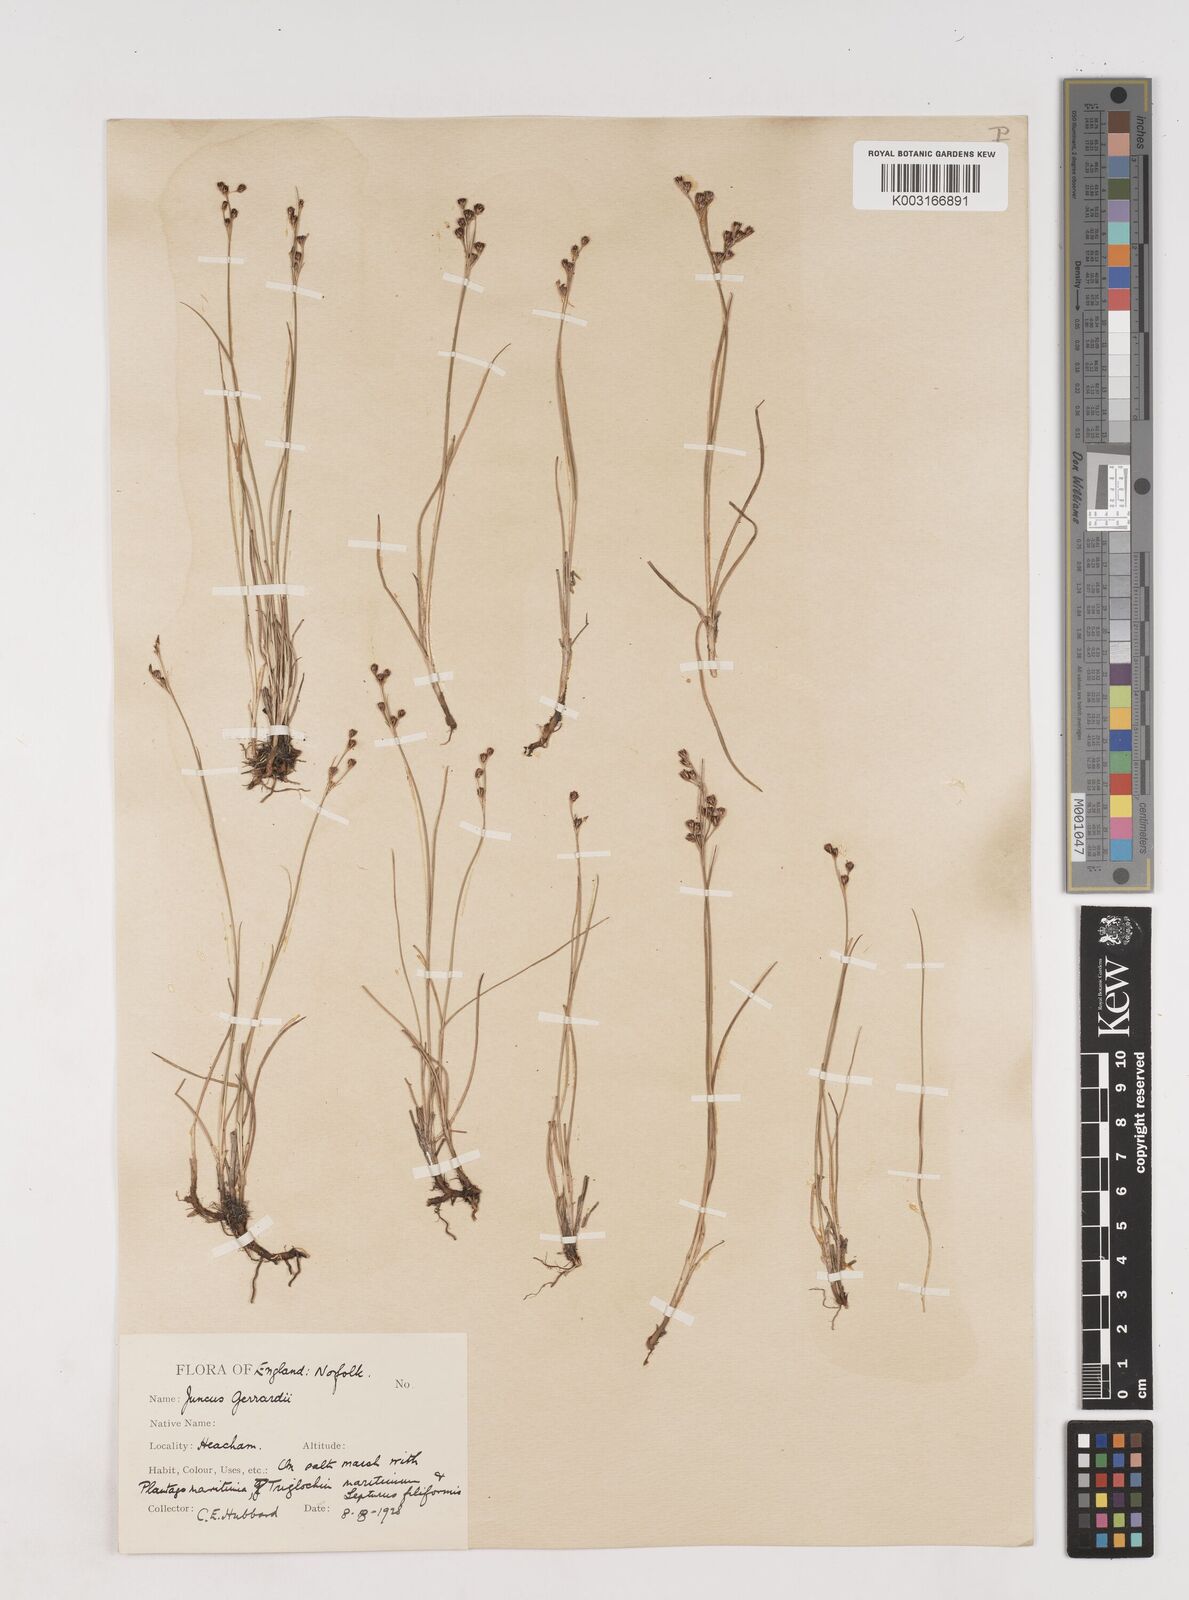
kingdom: Plantae
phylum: Tracheophyta
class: Liliopsida
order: Poales
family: Juncaceae
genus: Juncus
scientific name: Juncus gerardi
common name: Saltmarsh rush
